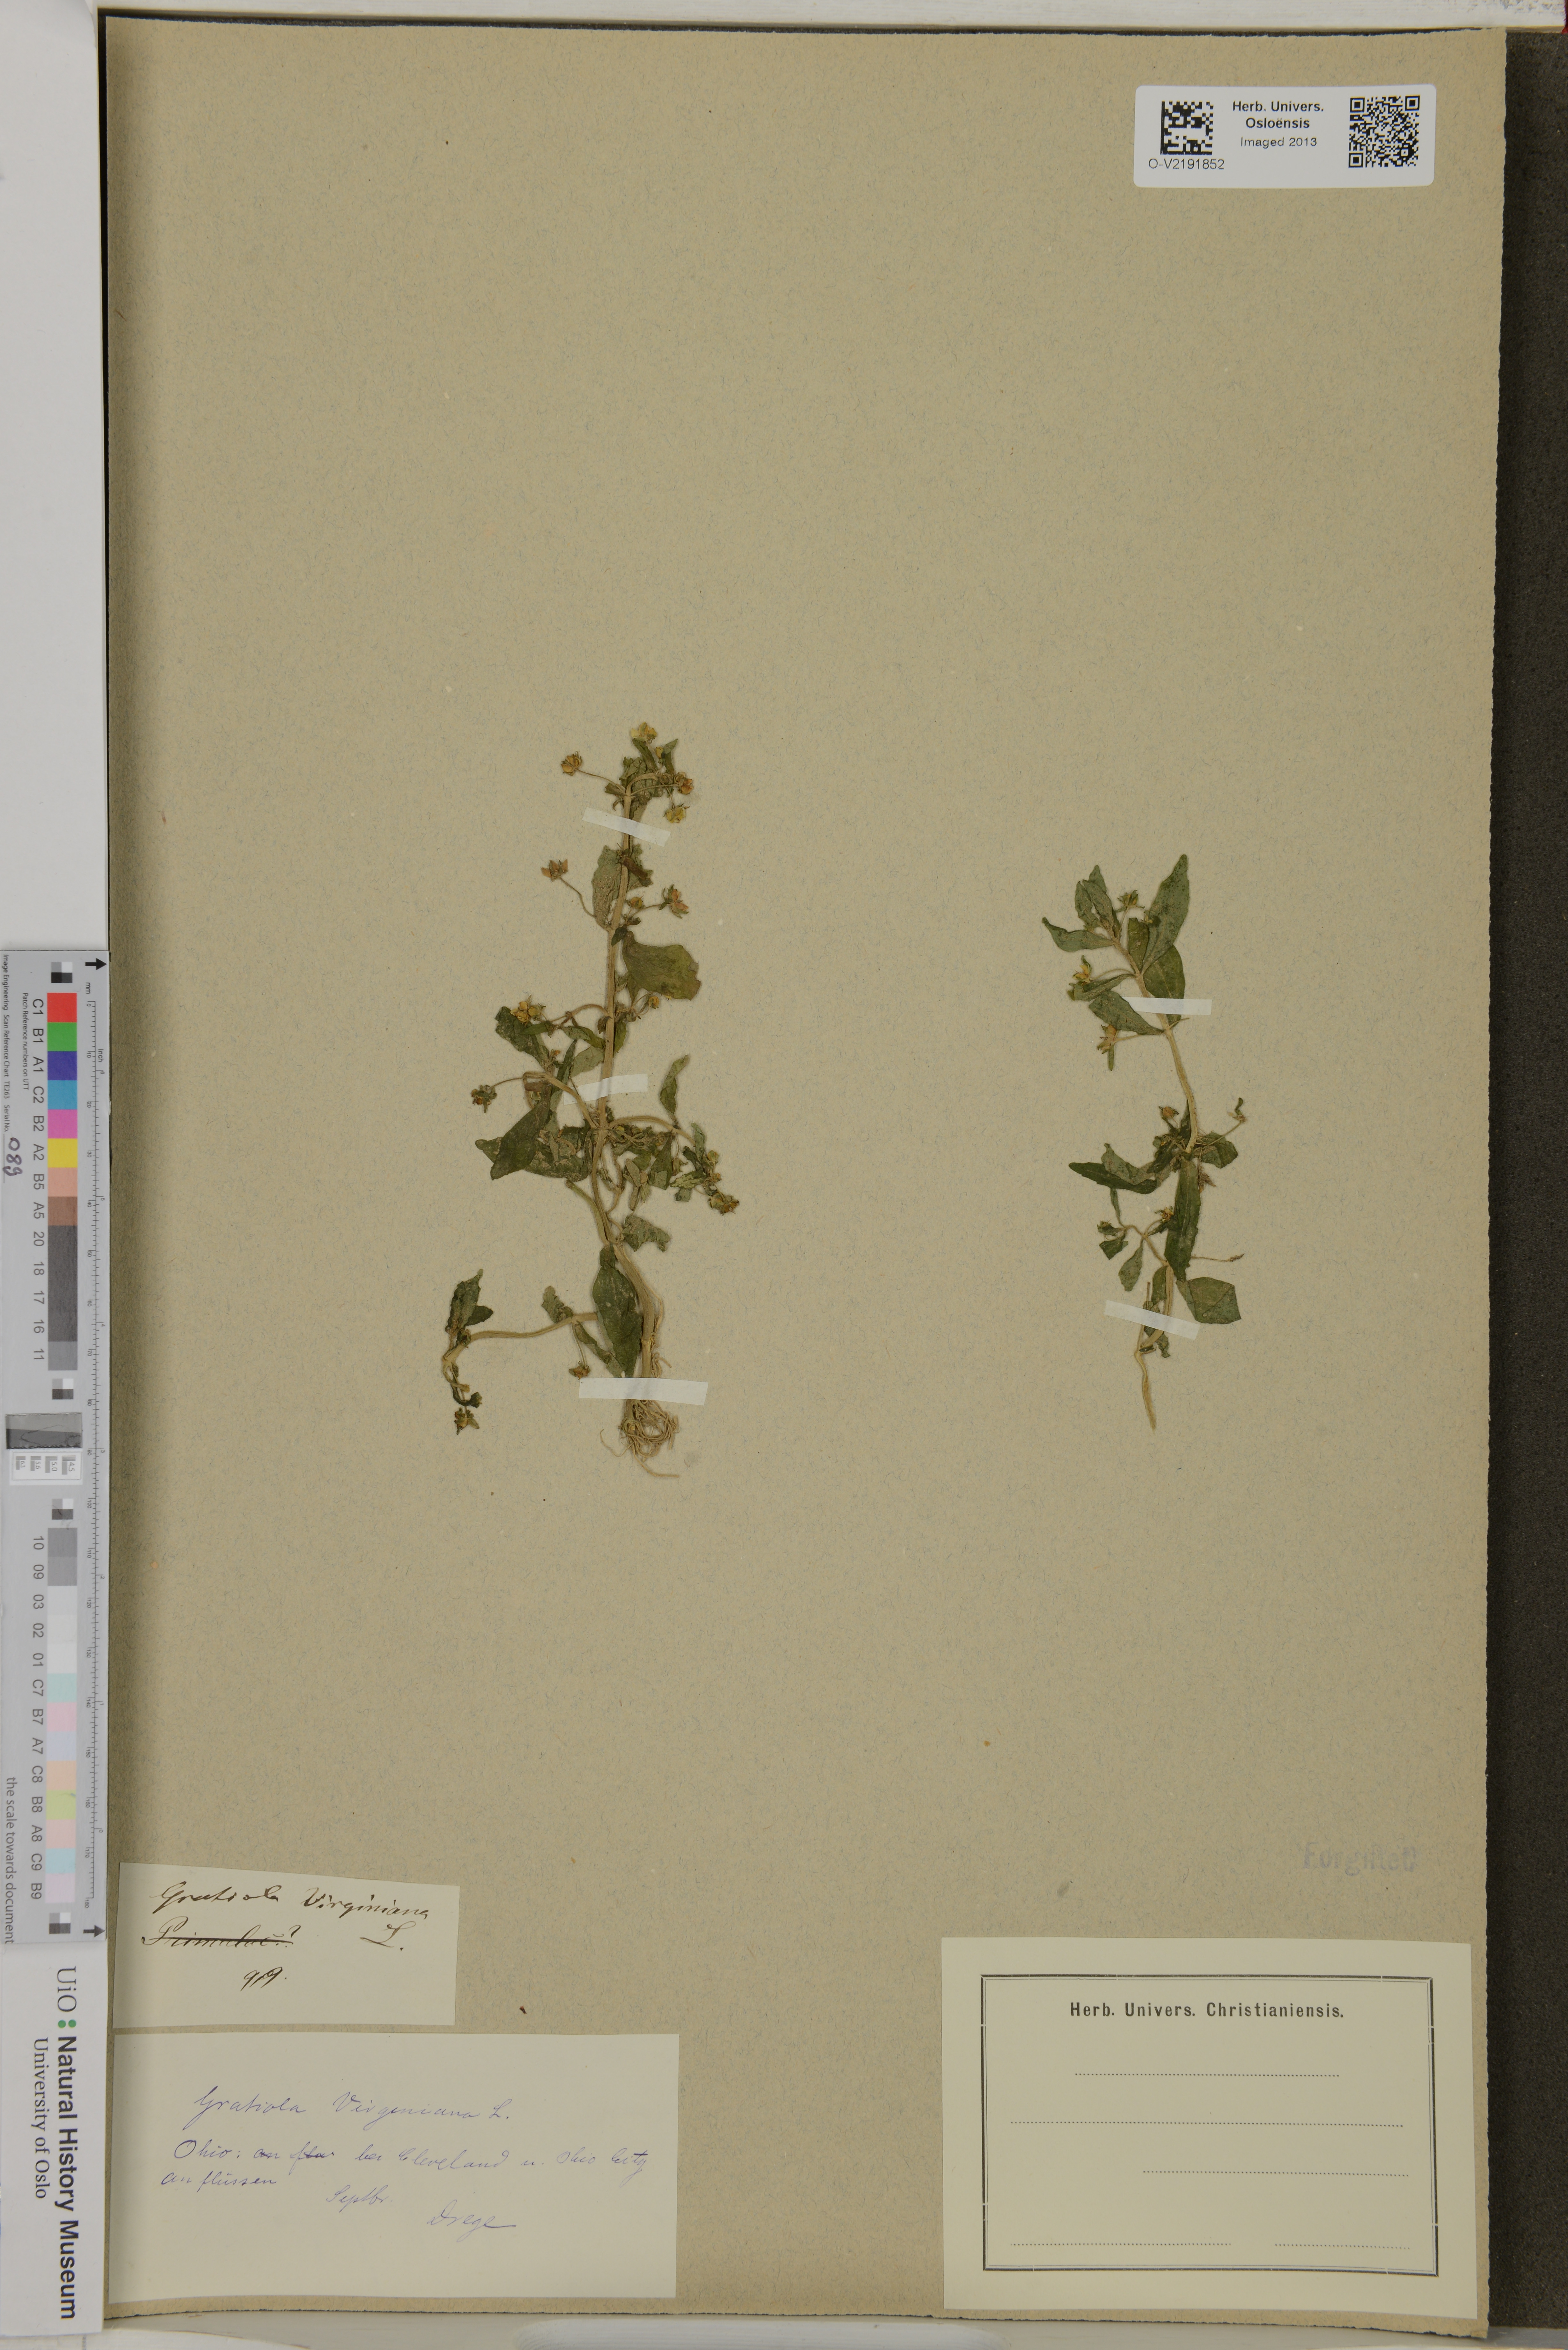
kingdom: Plantae
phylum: Tracheophyta
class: Magnoliopsida
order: Lamiales
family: Plantaginaceae
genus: Gratiola
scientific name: Gratiola virginiana
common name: Roundfruit hedgehyssop
